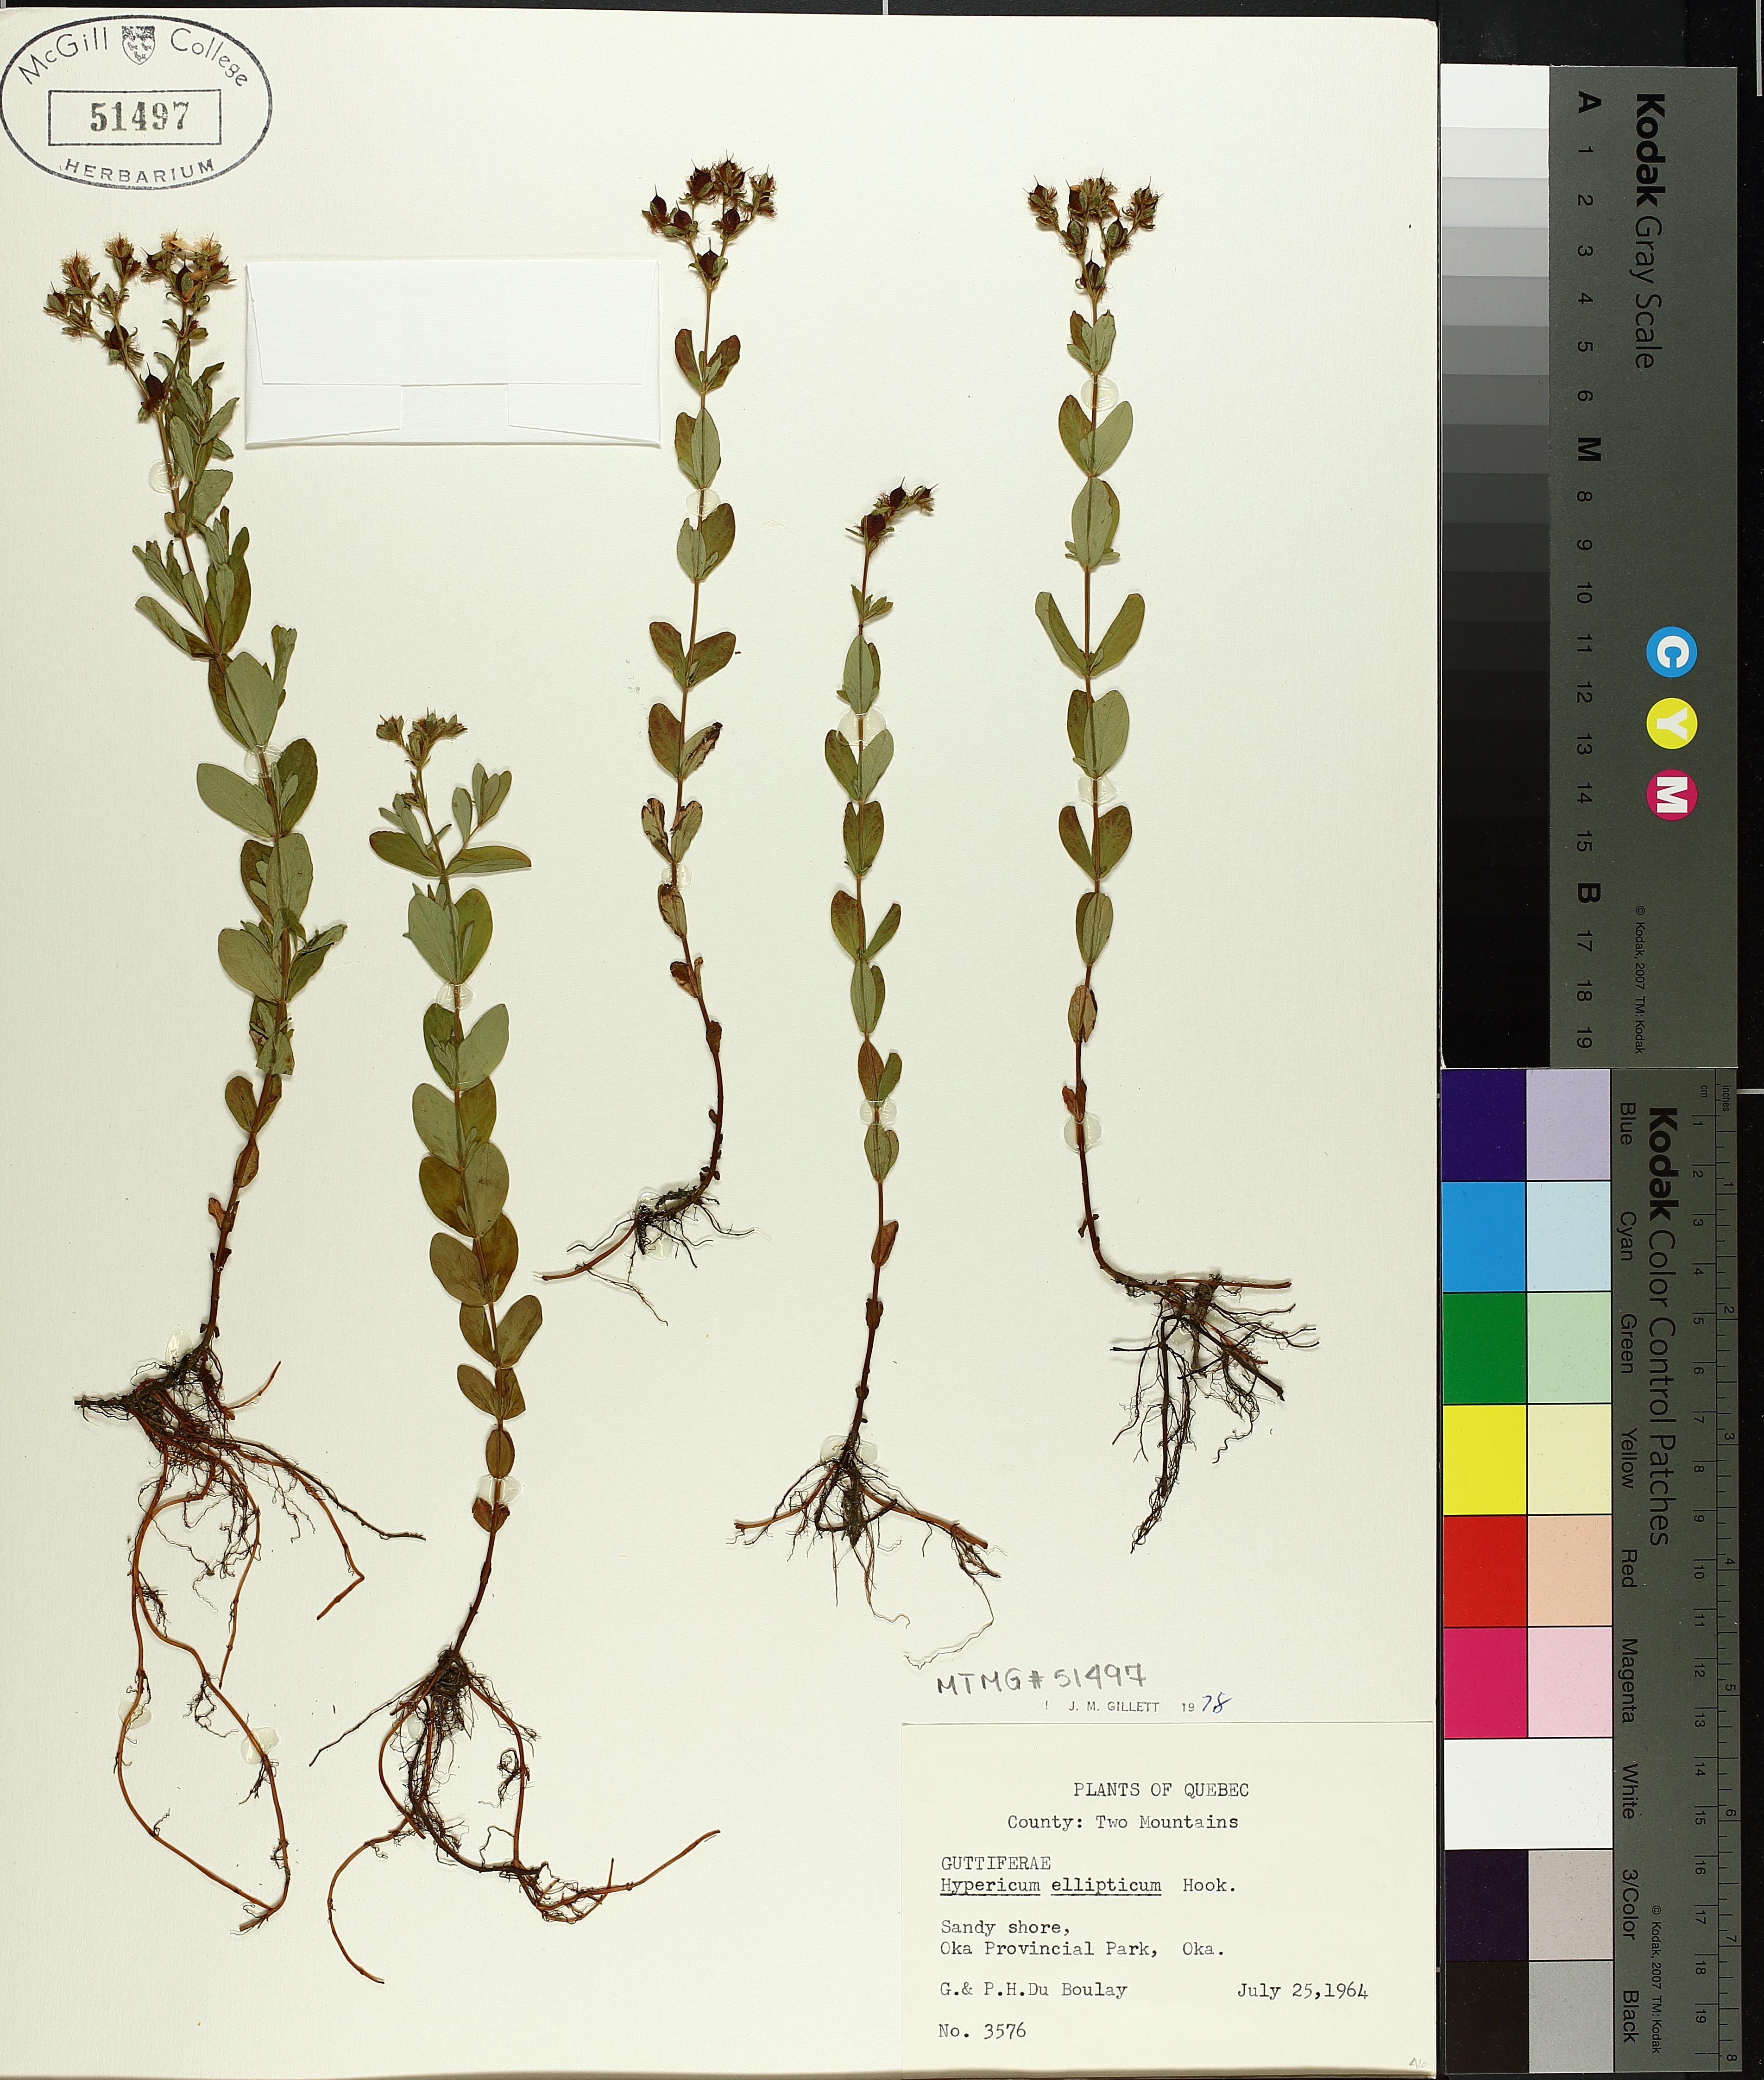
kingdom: Plantae
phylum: Tracheophyta
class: Magnoliopsida
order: Malpighiales
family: Hypericaceae
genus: Hypericum
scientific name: Hypericum ellipticum
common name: Elliptic st. john's-wort
